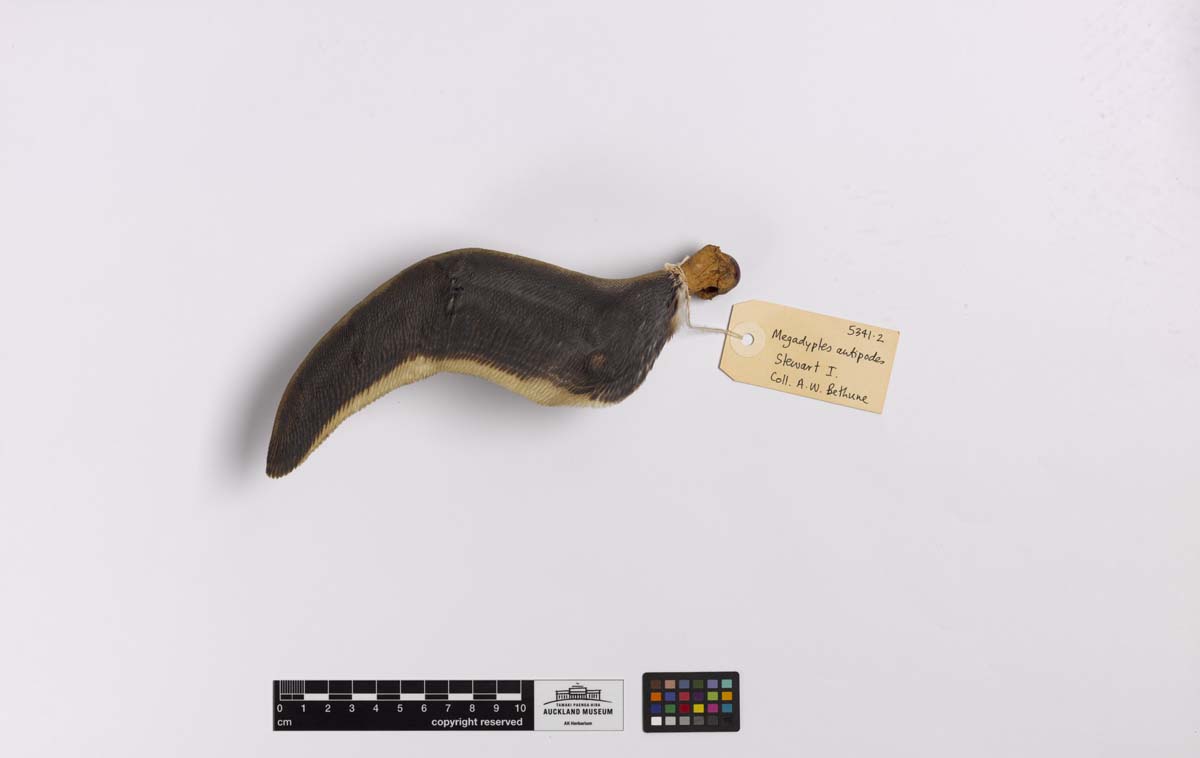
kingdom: Animalia
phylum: Chordata
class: Aves
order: Sphenisciformes
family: Spheniscidae
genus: Megadyptes
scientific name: Megadyptes antipodes
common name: Yellow-eyed penguin
